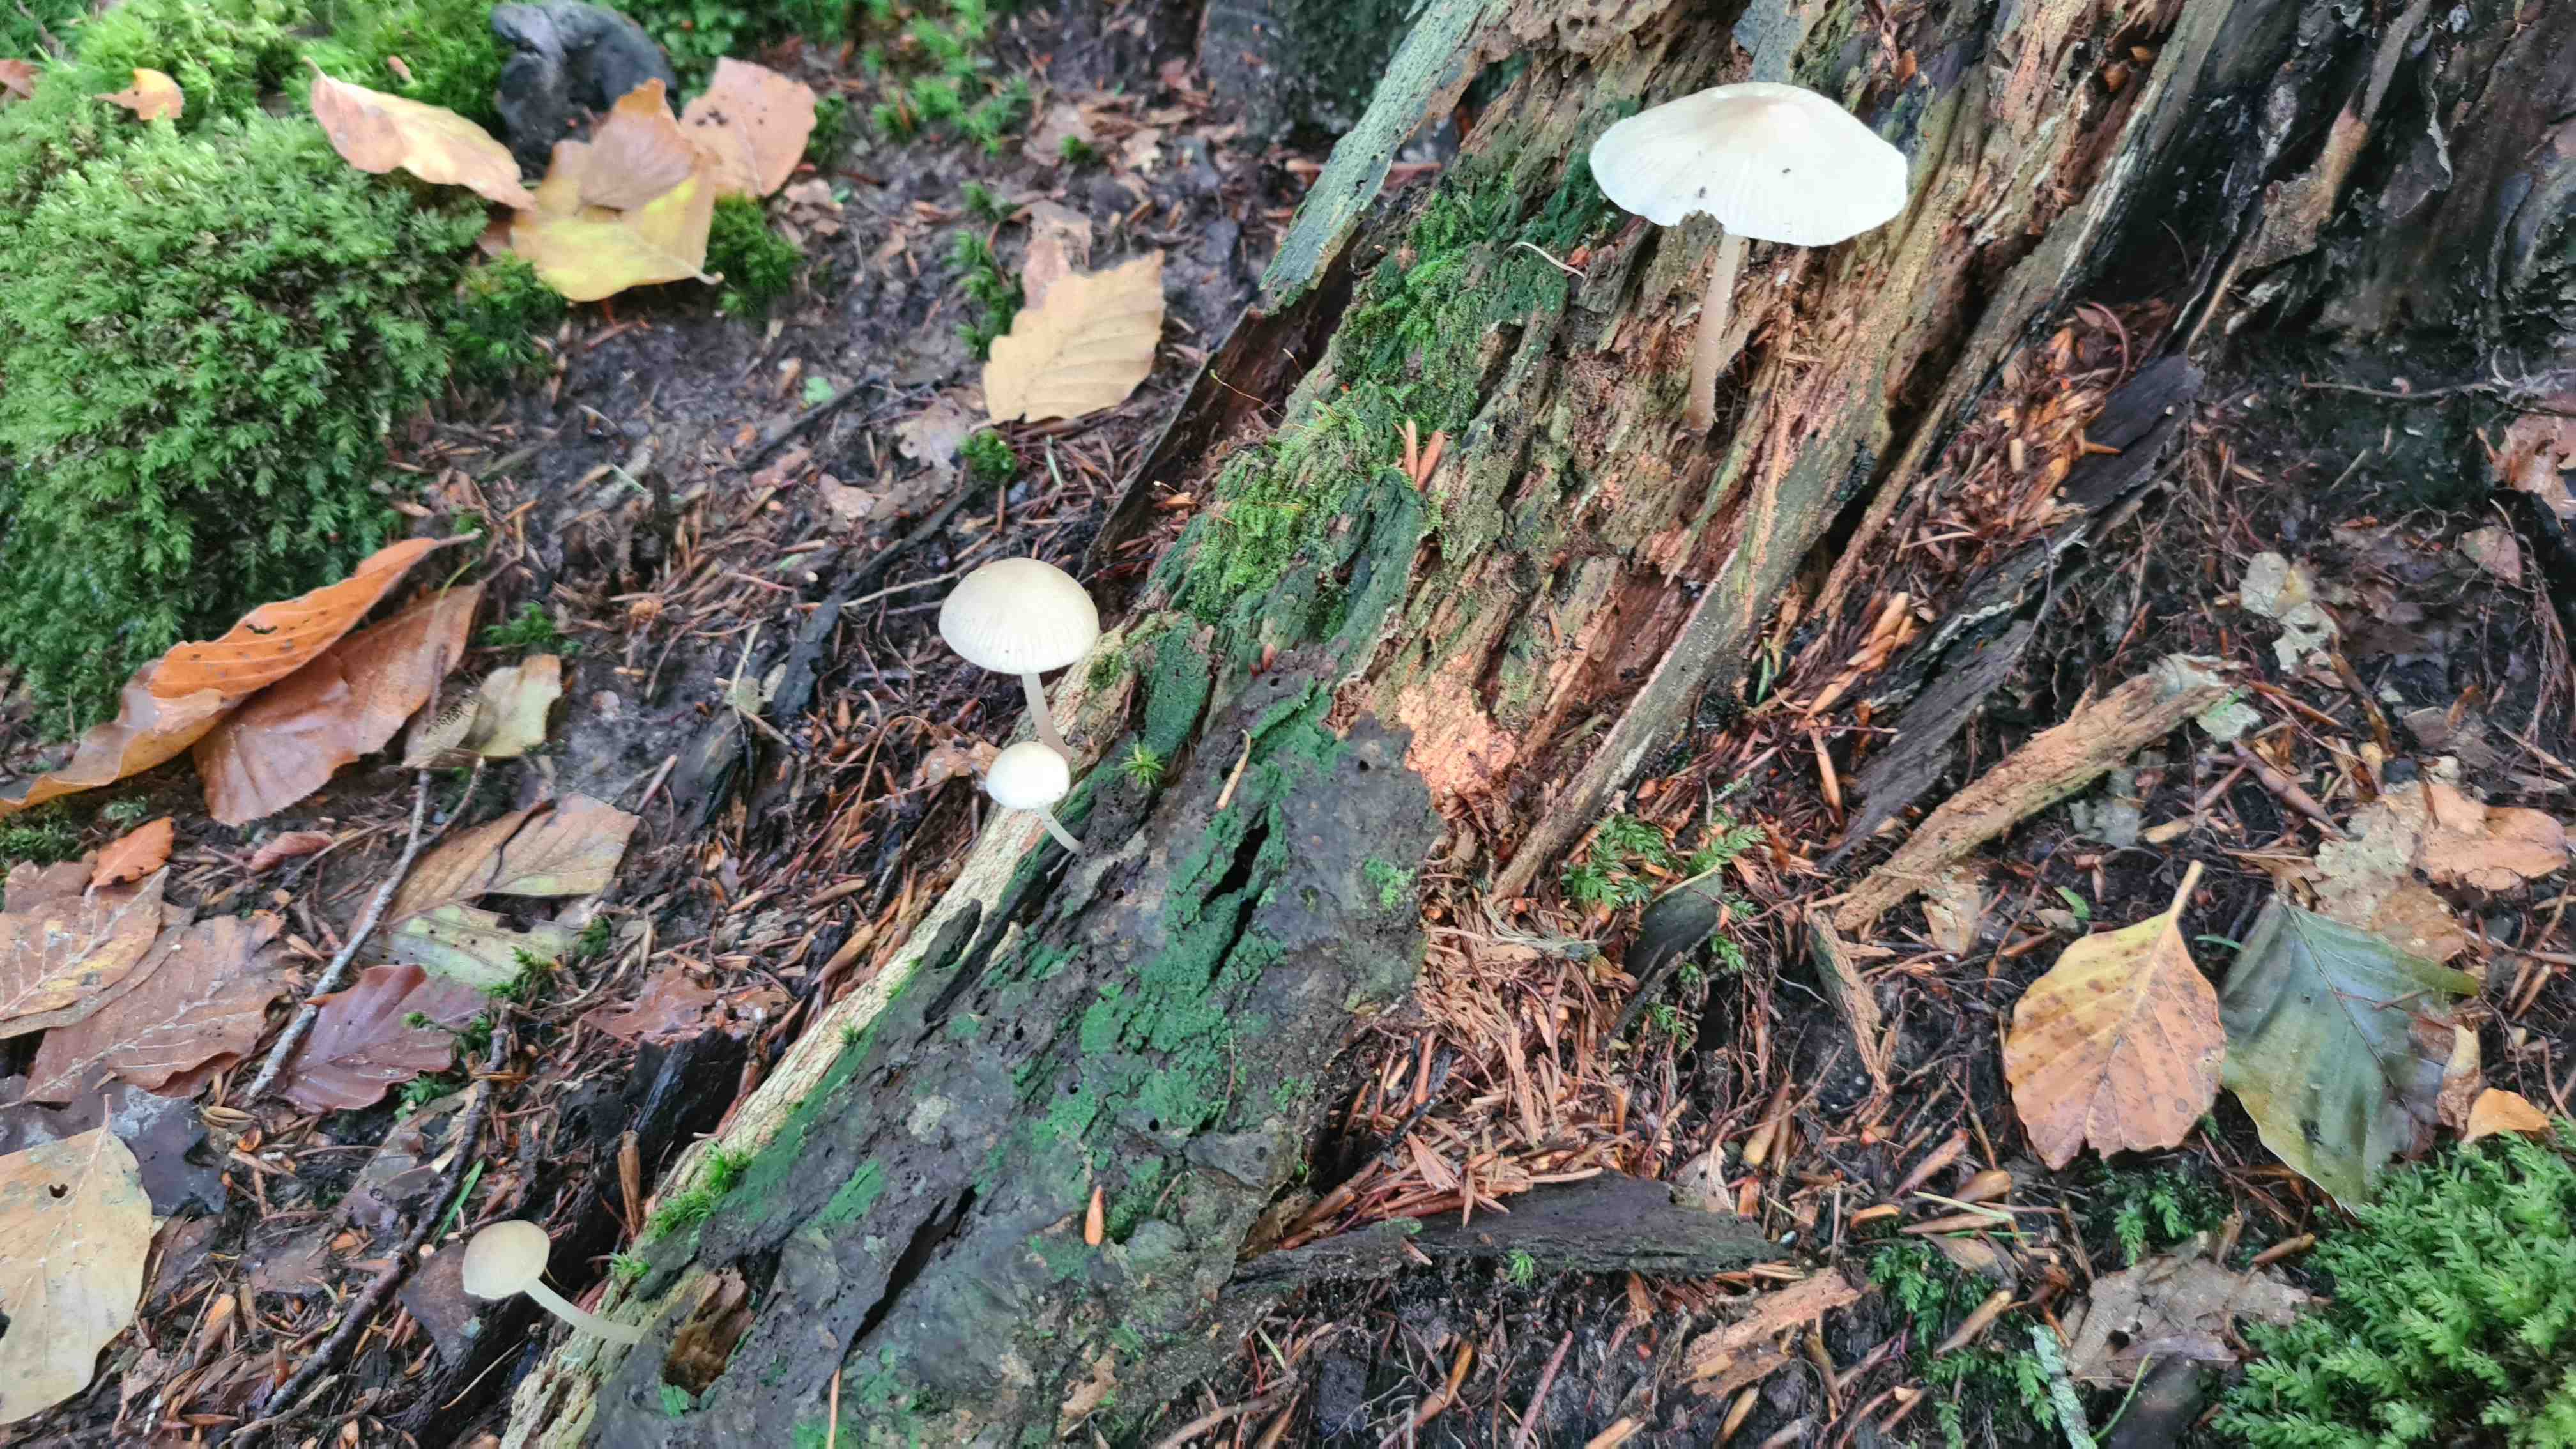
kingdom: Fungi
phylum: Basidiomycota
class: Agaricomycetes
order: Agaricales
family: Mycenaceae
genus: Mycena
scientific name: Mycena galericulata
